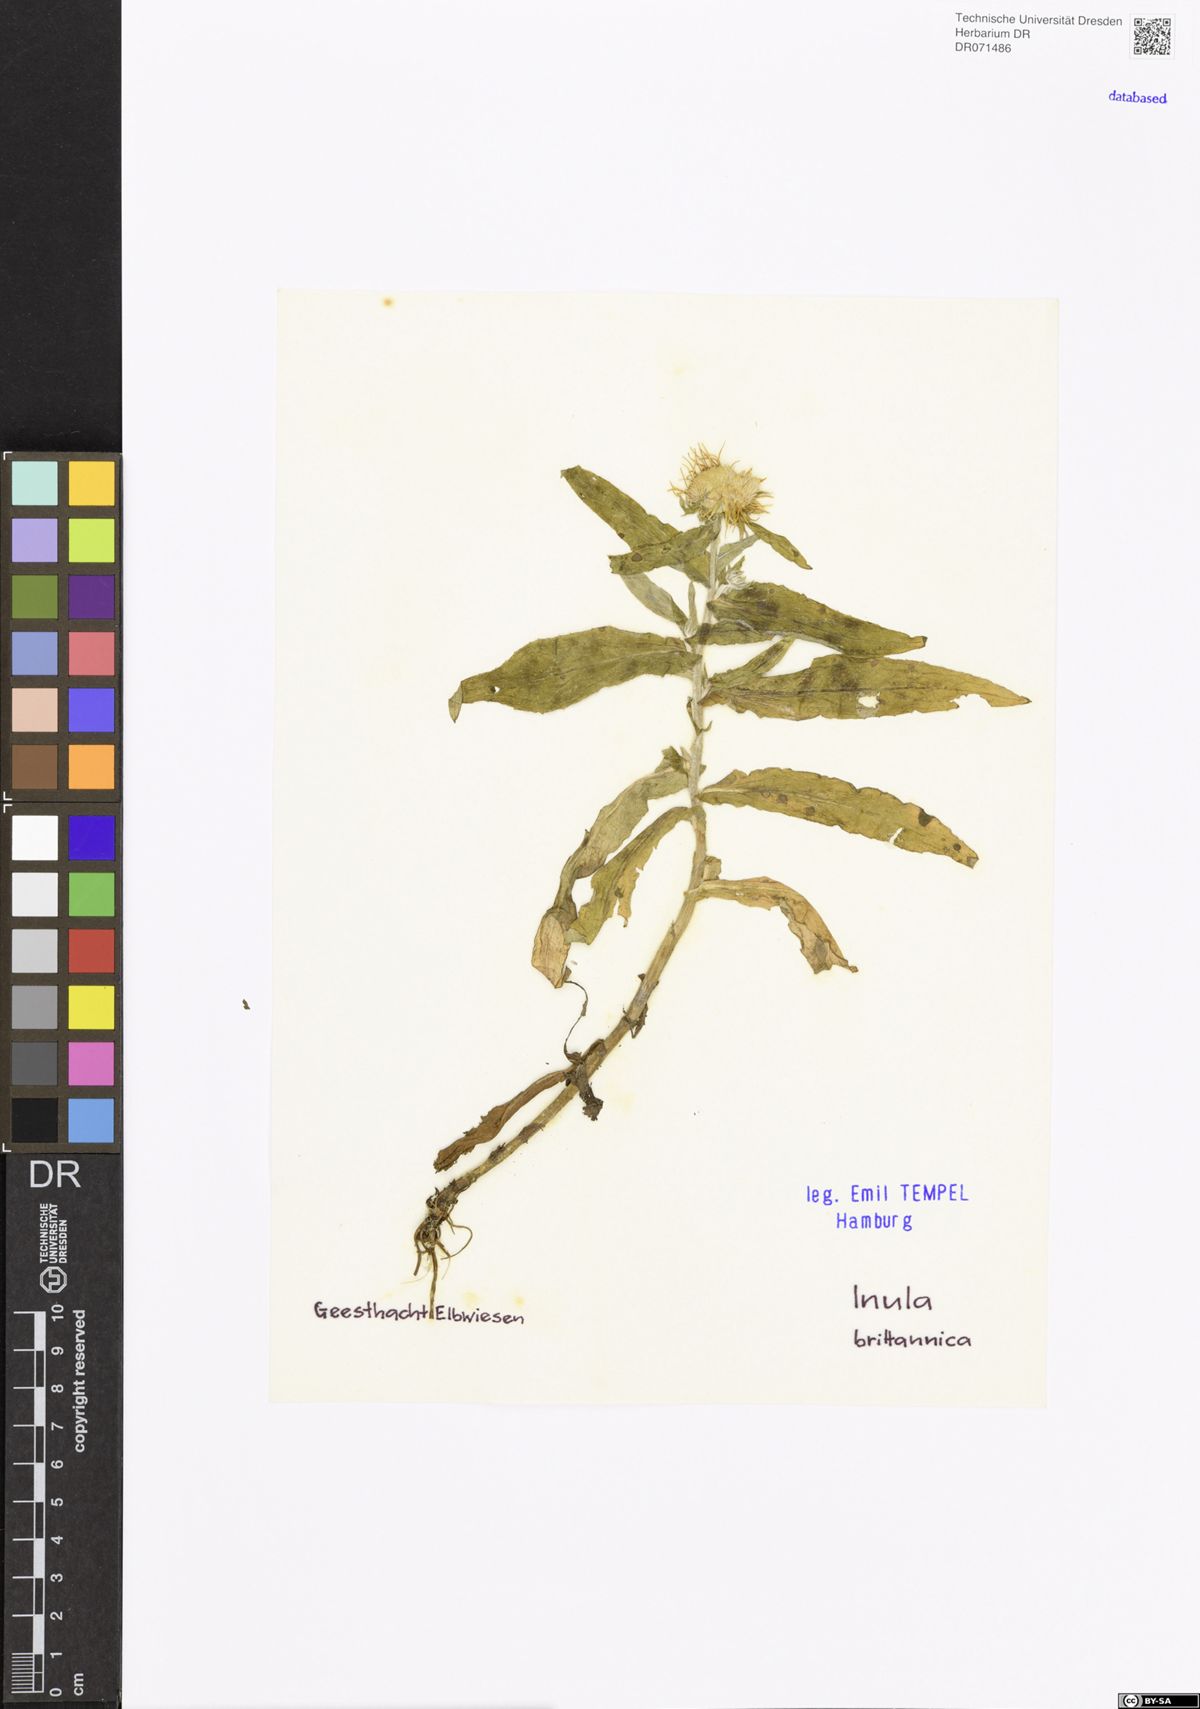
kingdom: Plantae
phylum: Tracheophyta
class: Magnoliopsida
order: Asterales
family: Asteraceae
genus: Pentanema
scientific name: Pentanema britannicum
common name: British elecampane
